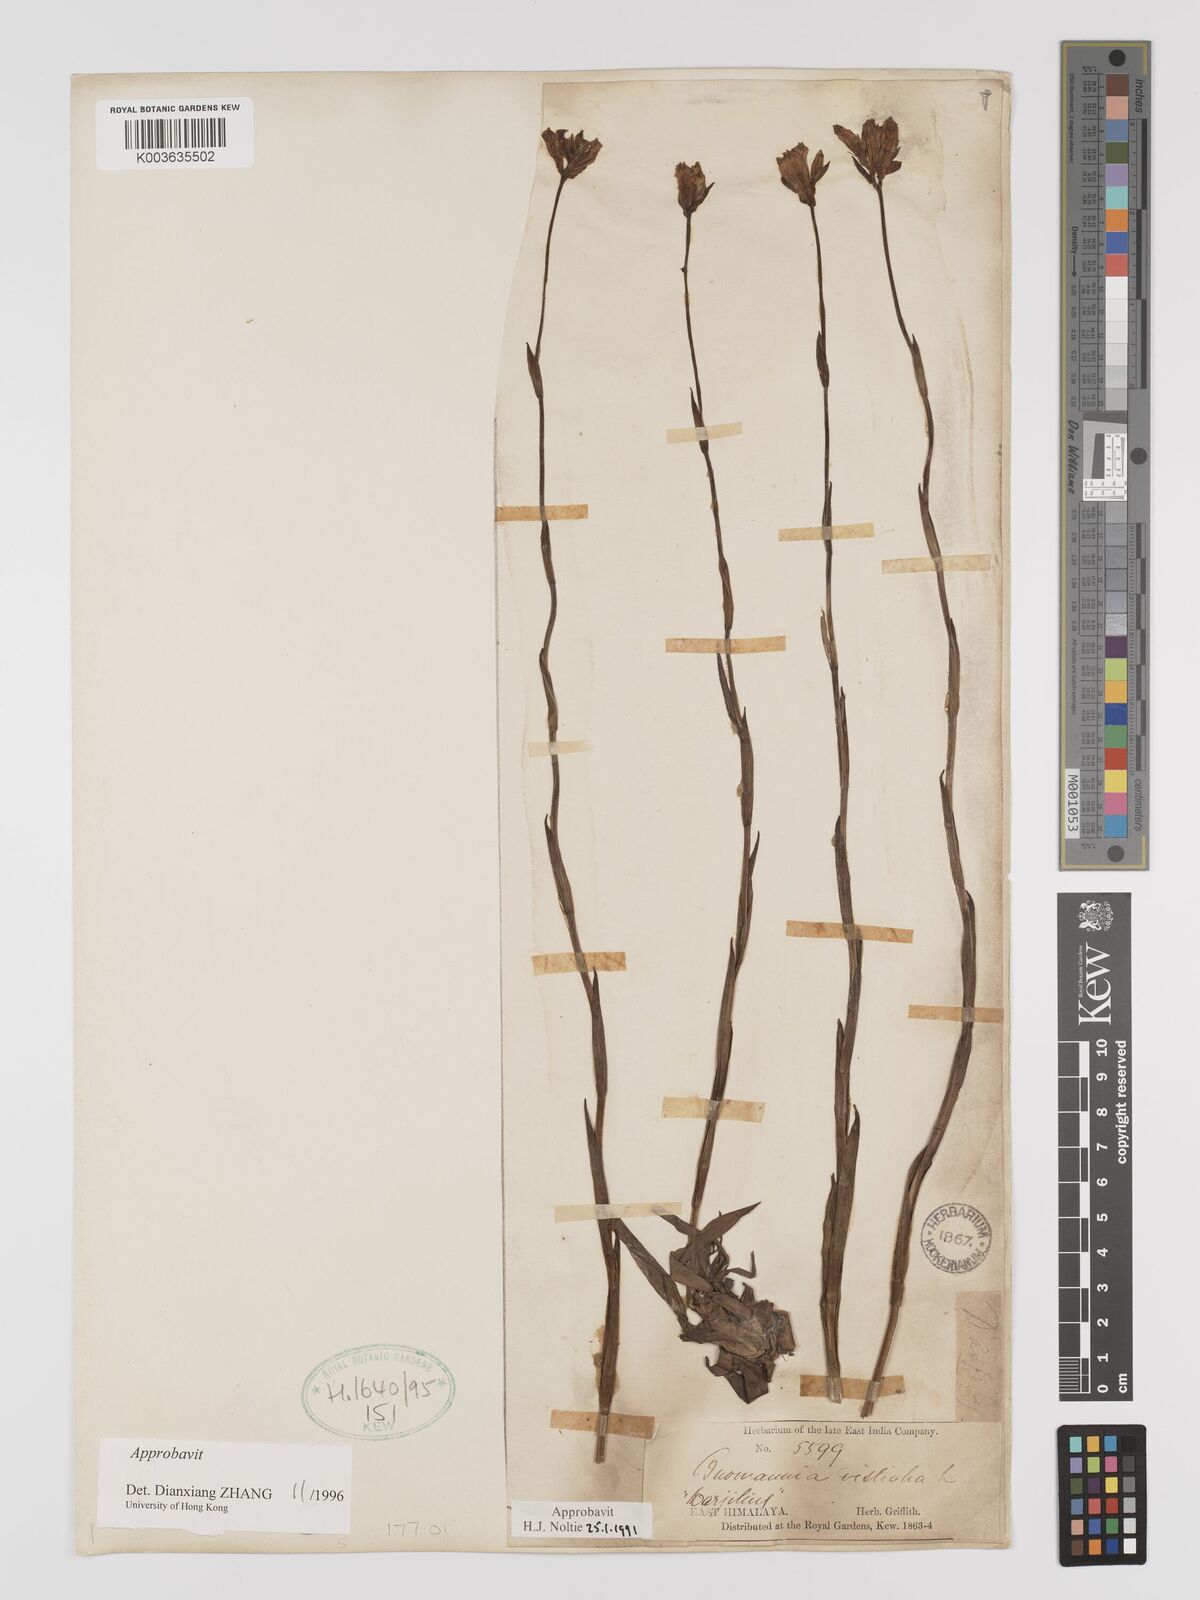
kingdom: Plantae
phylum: Tracheophyta
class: Liliopsida
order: Dioscoreales
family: Burmanniaceae
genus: Burmannia
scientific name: Burmannia disticha
